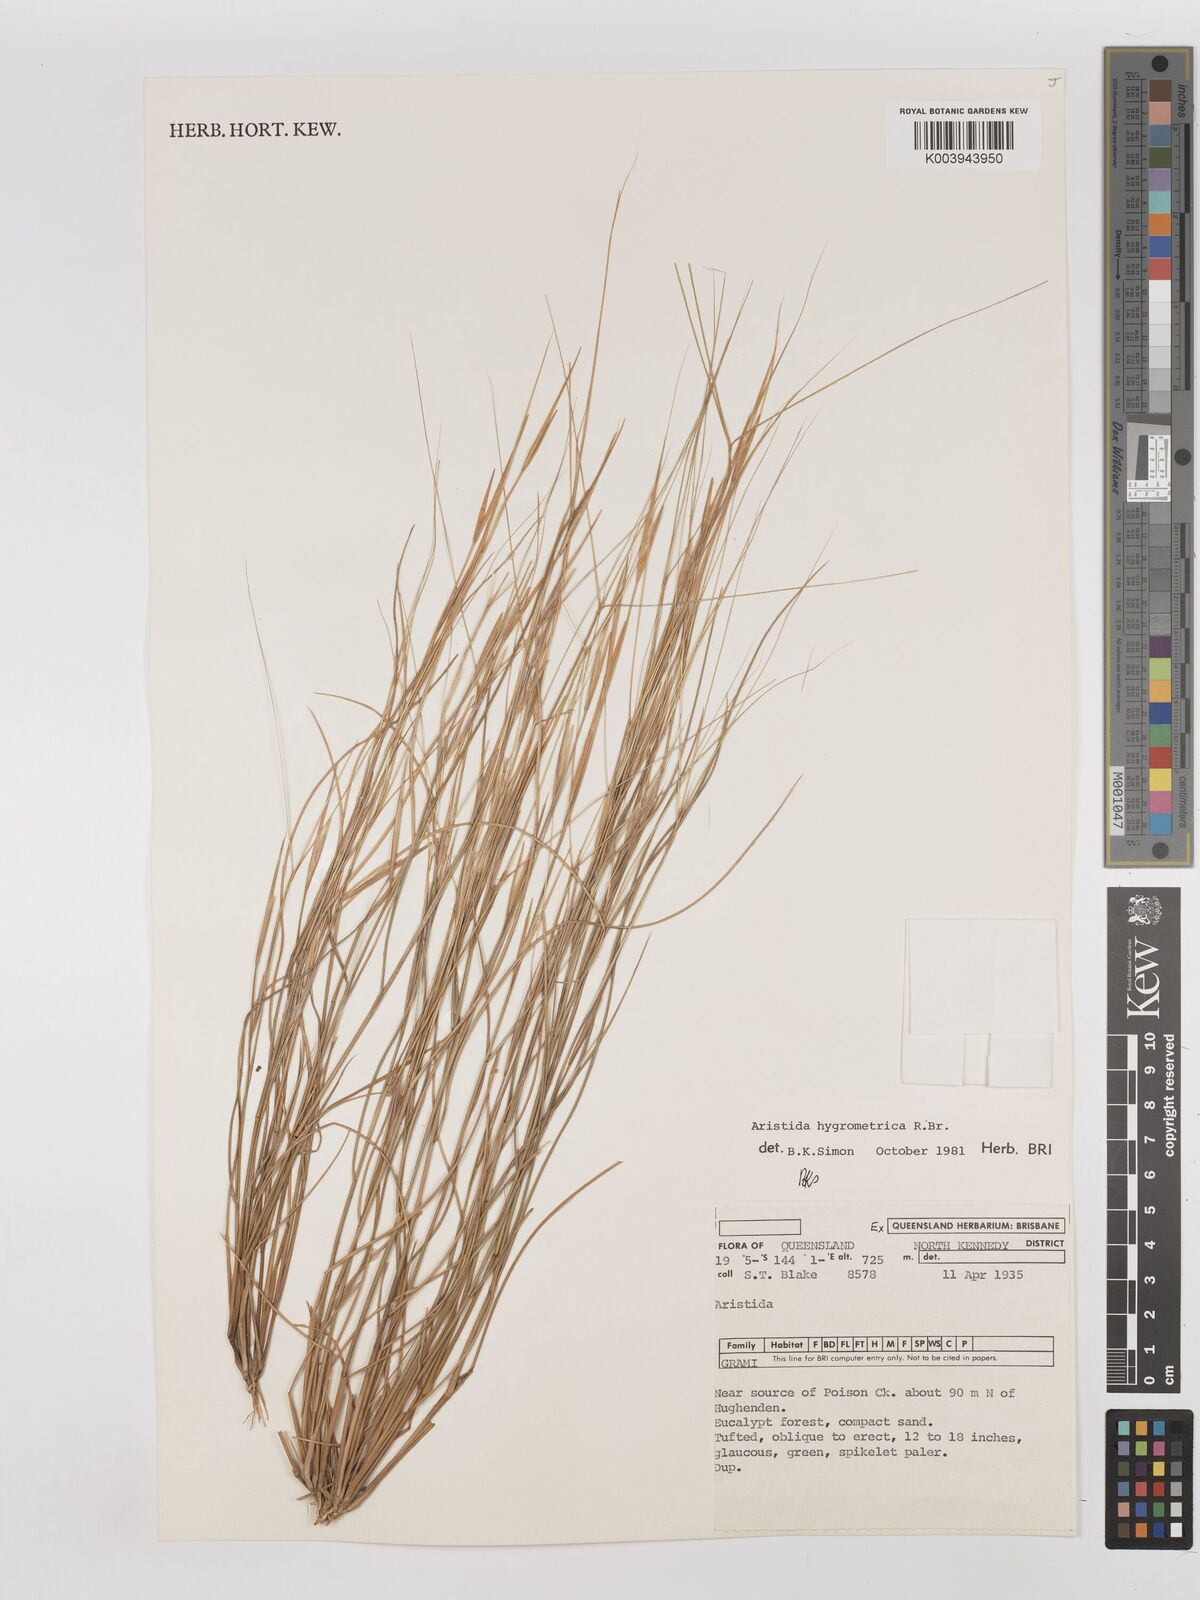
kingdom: Plantae
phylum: Tracheophyta
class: Liliopsida
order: Poales
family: Poaceae
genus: Aristida
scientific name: Aristida hygrometrica
